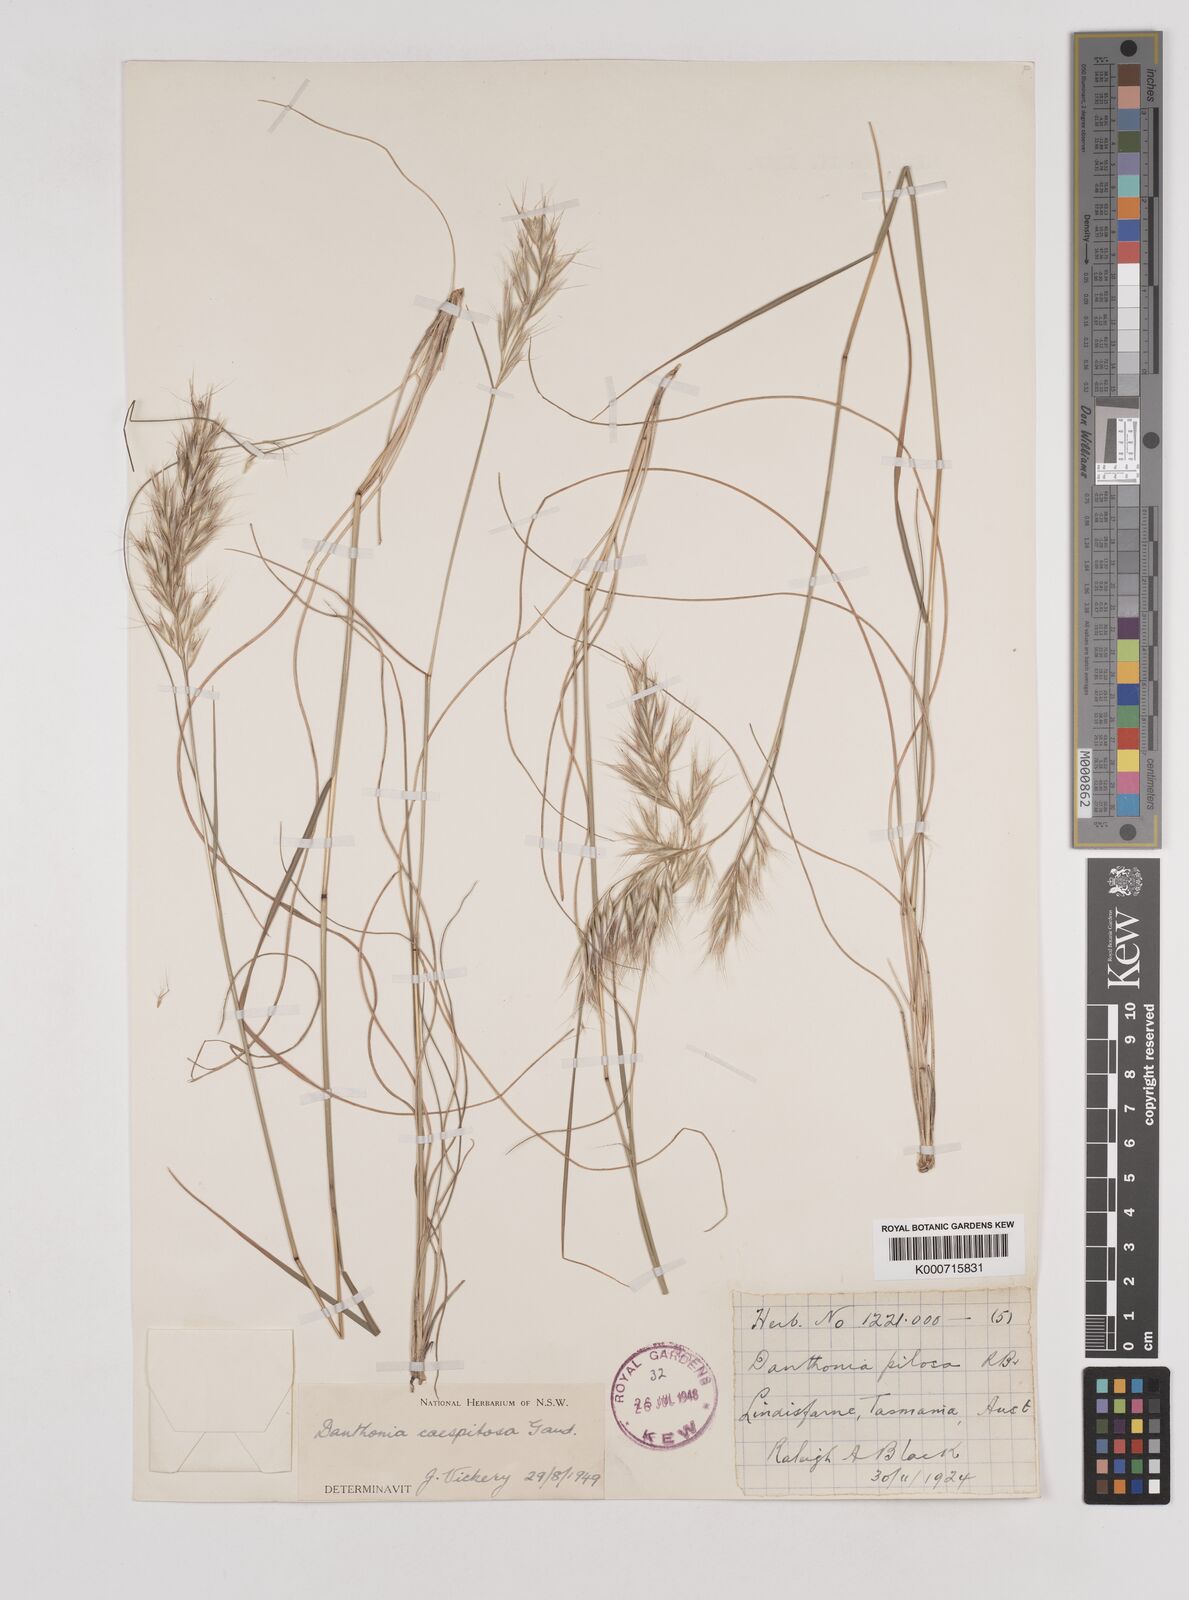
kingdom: Plantae
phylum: Tracheophyta
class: Liliopsida
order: Poales
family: Poaceae
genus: Rytidosperma
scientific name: Rytidosperma caespitosum
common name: Tufted wallaby grass
